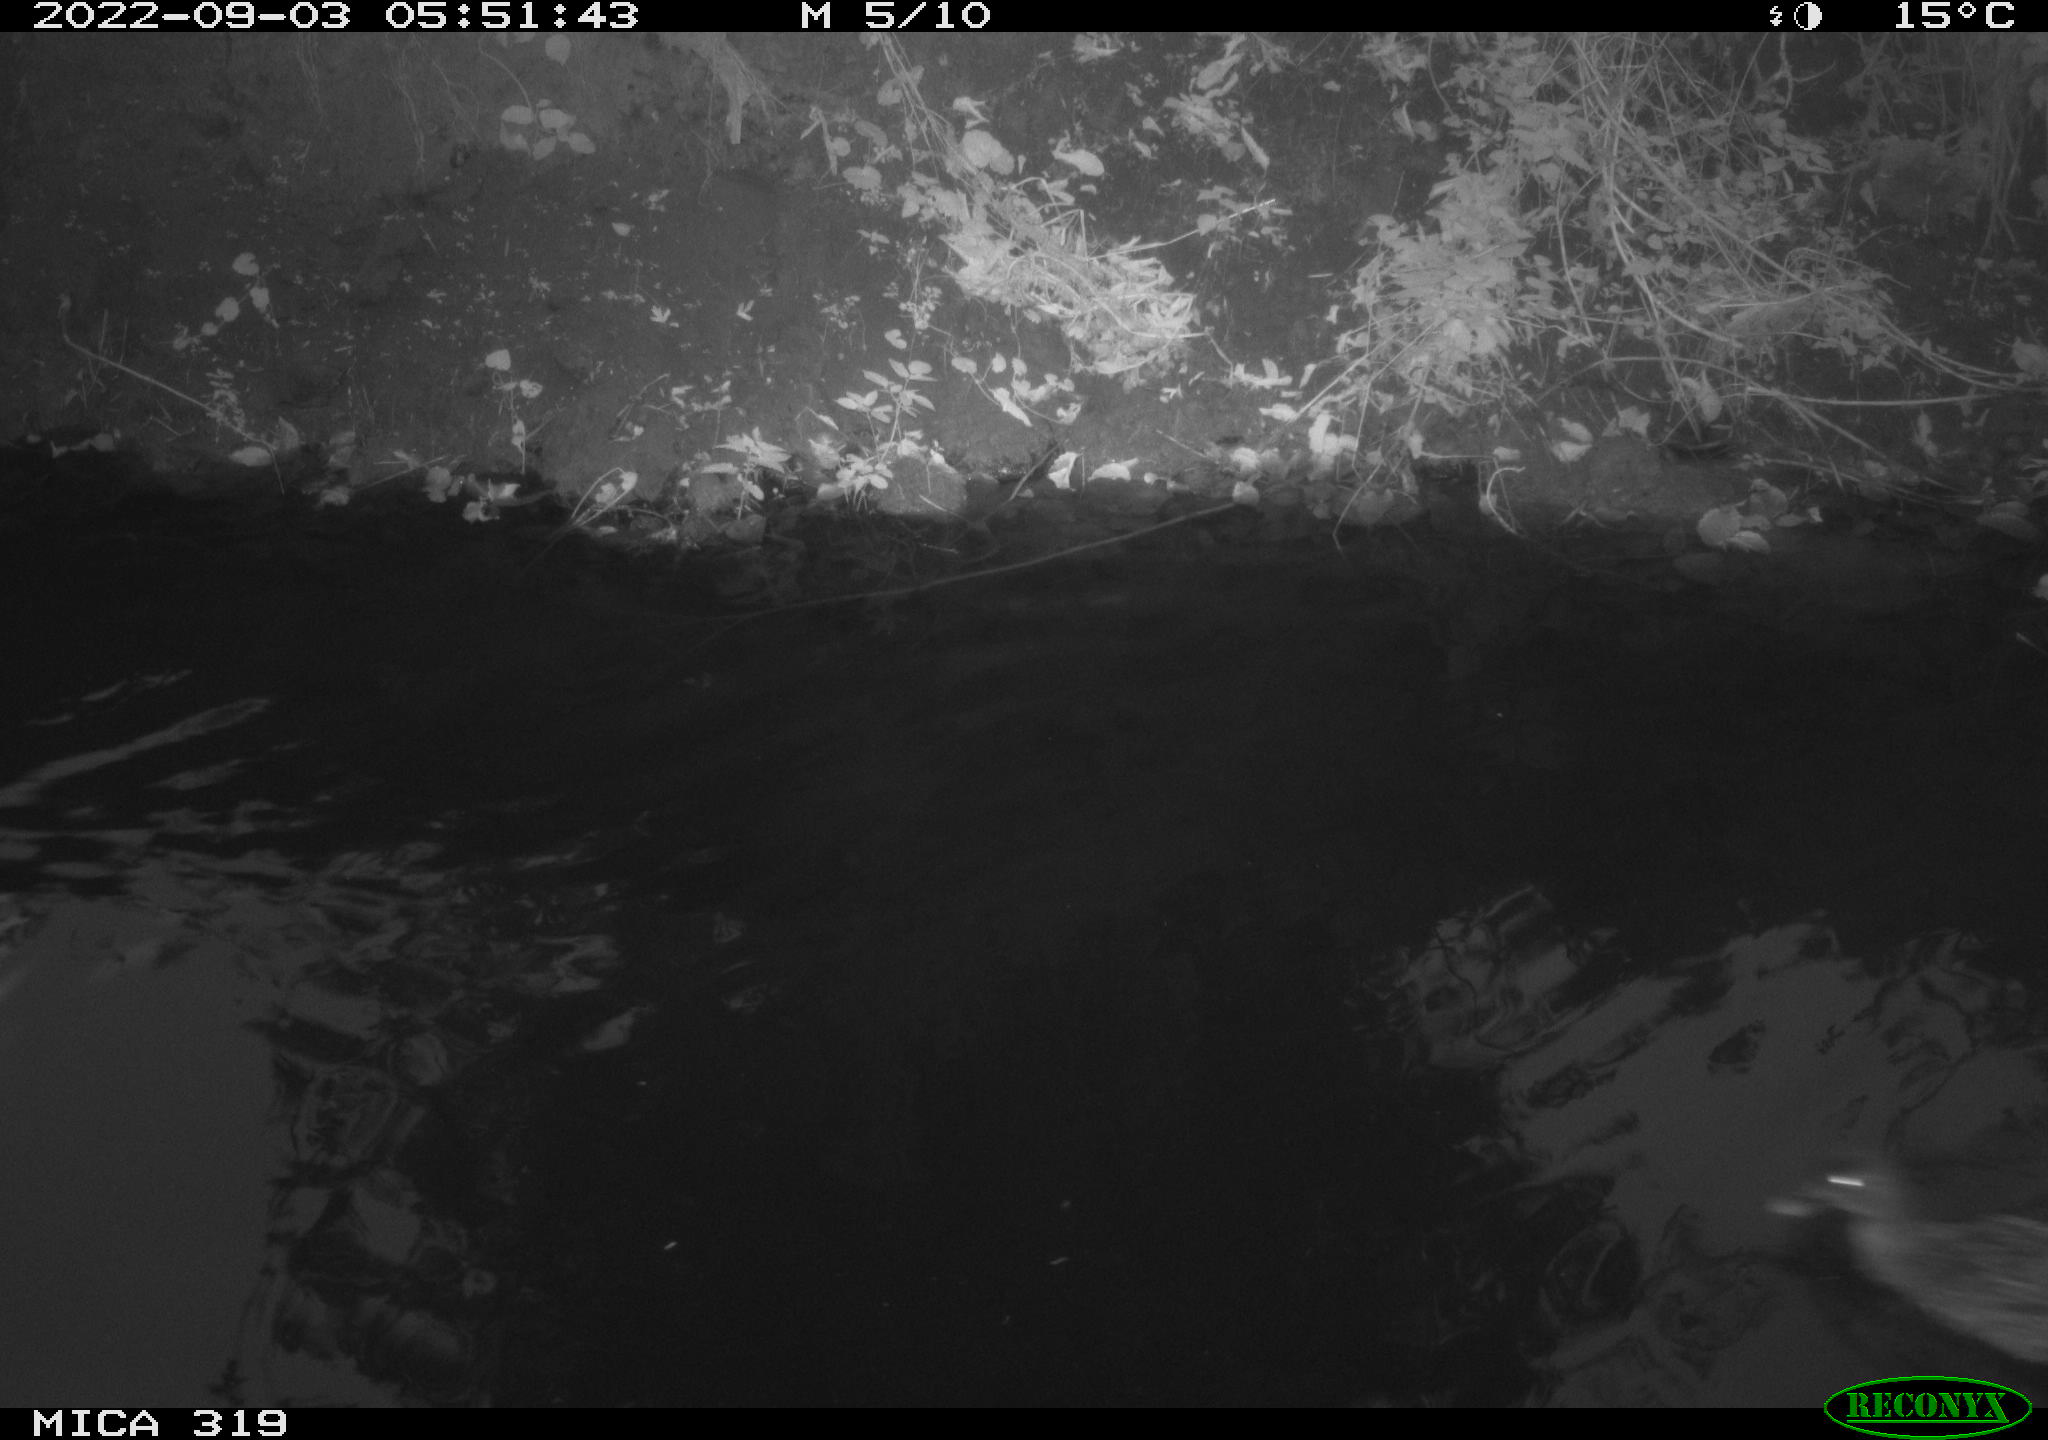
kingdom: Animalia
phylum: Chordata
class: Aves
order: Anseriformes
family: Anatidae
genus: Anas
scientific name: Anas
